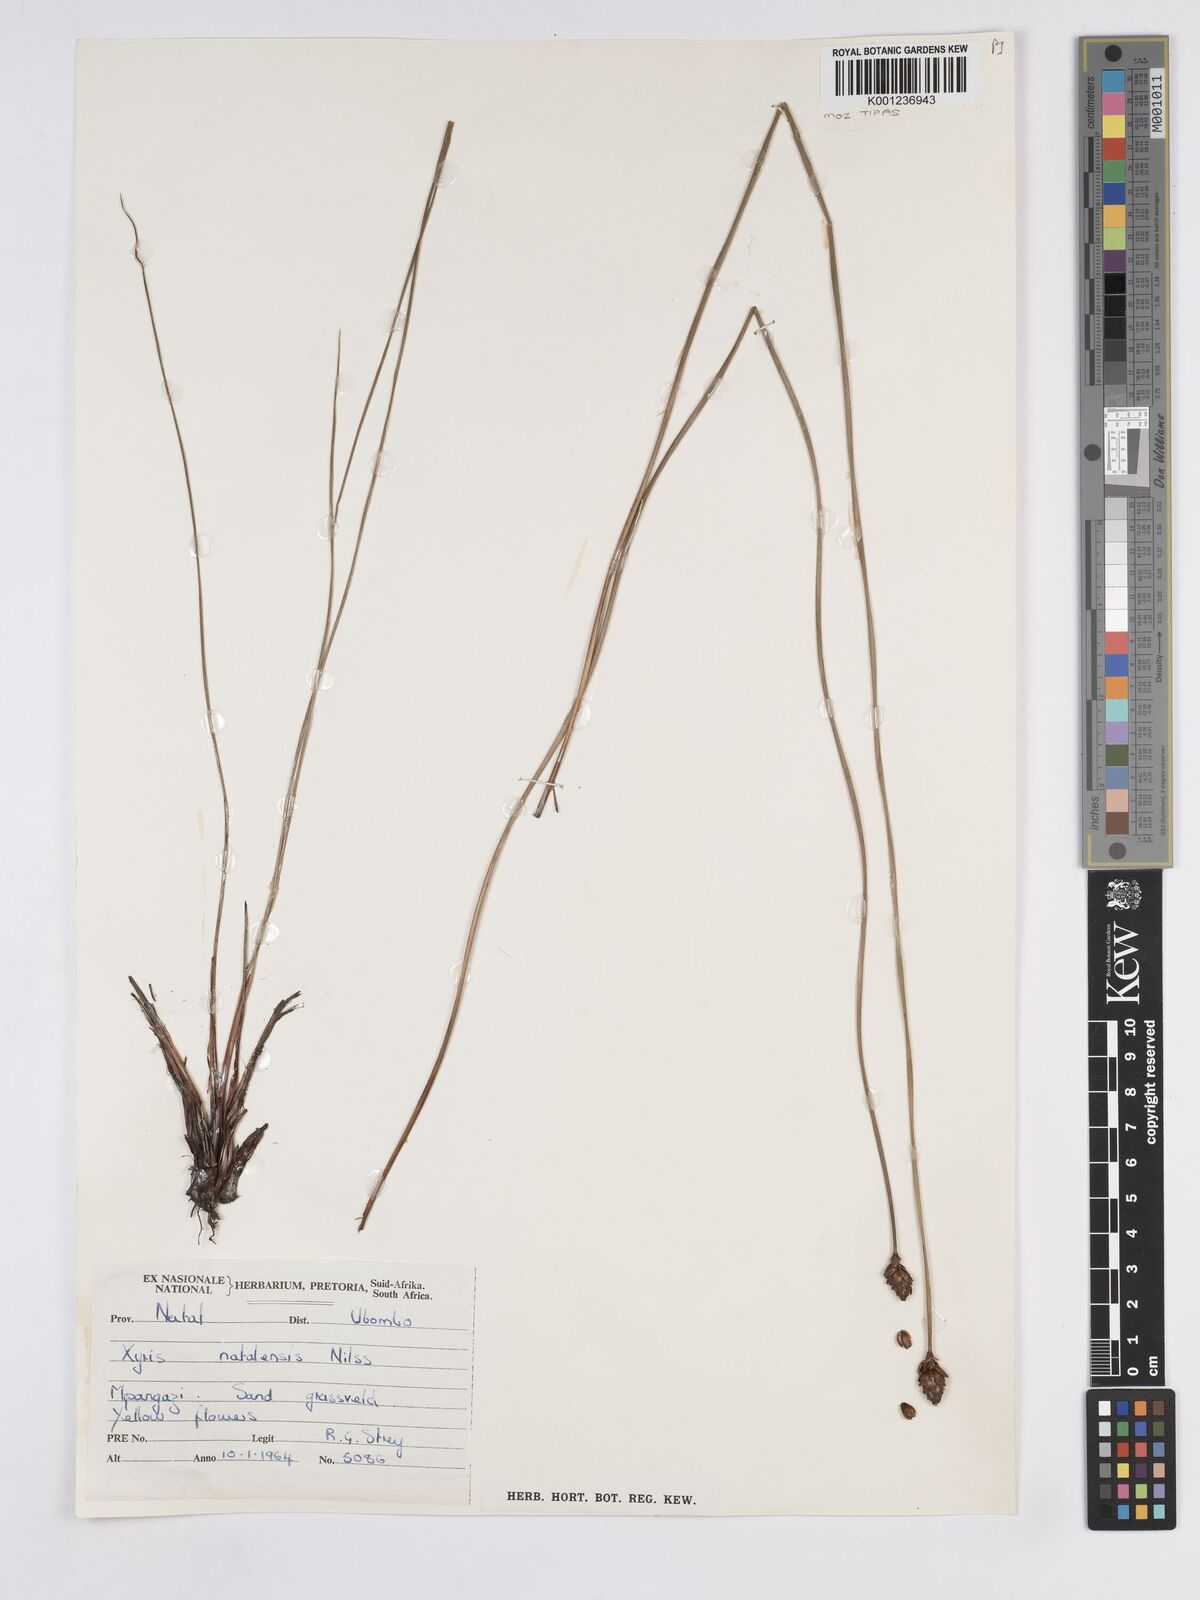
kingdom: Plantae
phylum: Tracheophyta
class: Liliopsida
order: Poales
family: Xyridaceae
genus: Xyris
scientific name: Xyris natalensis
